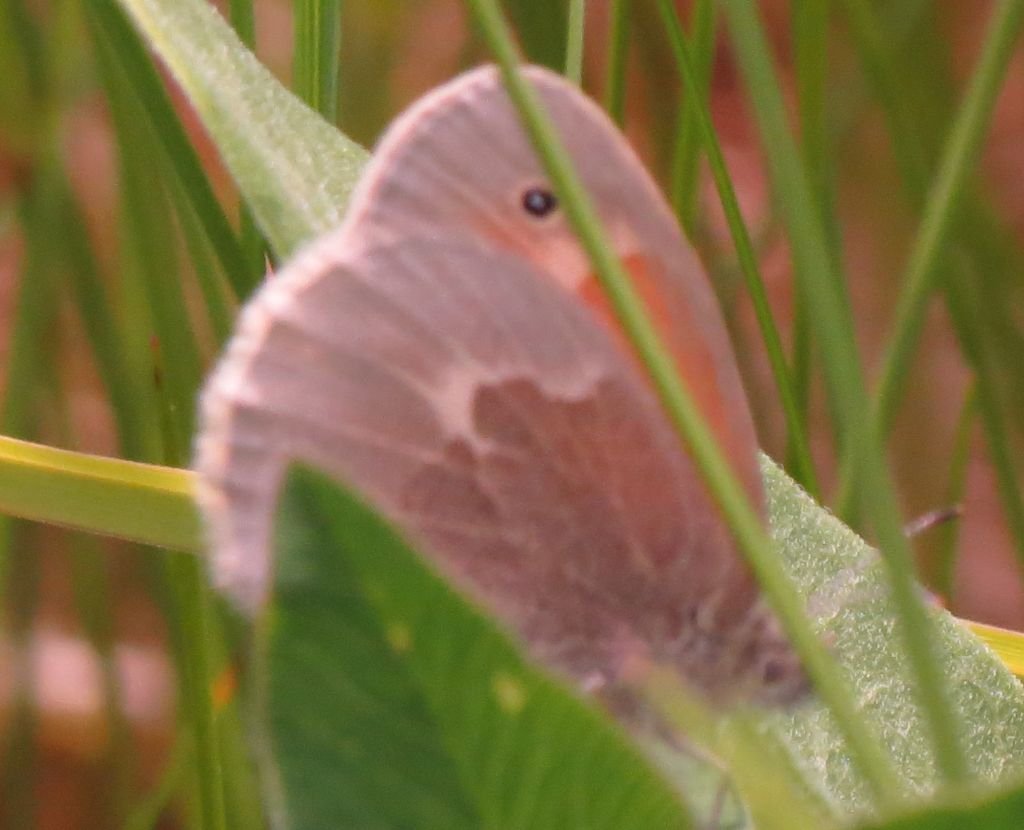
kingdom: Animalia
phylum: Arthropoda
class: Insecta
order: Lepidoptera
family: Nymphalidae
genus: Coenonympha
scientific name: Coenonympha tullia
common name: Large Heath
